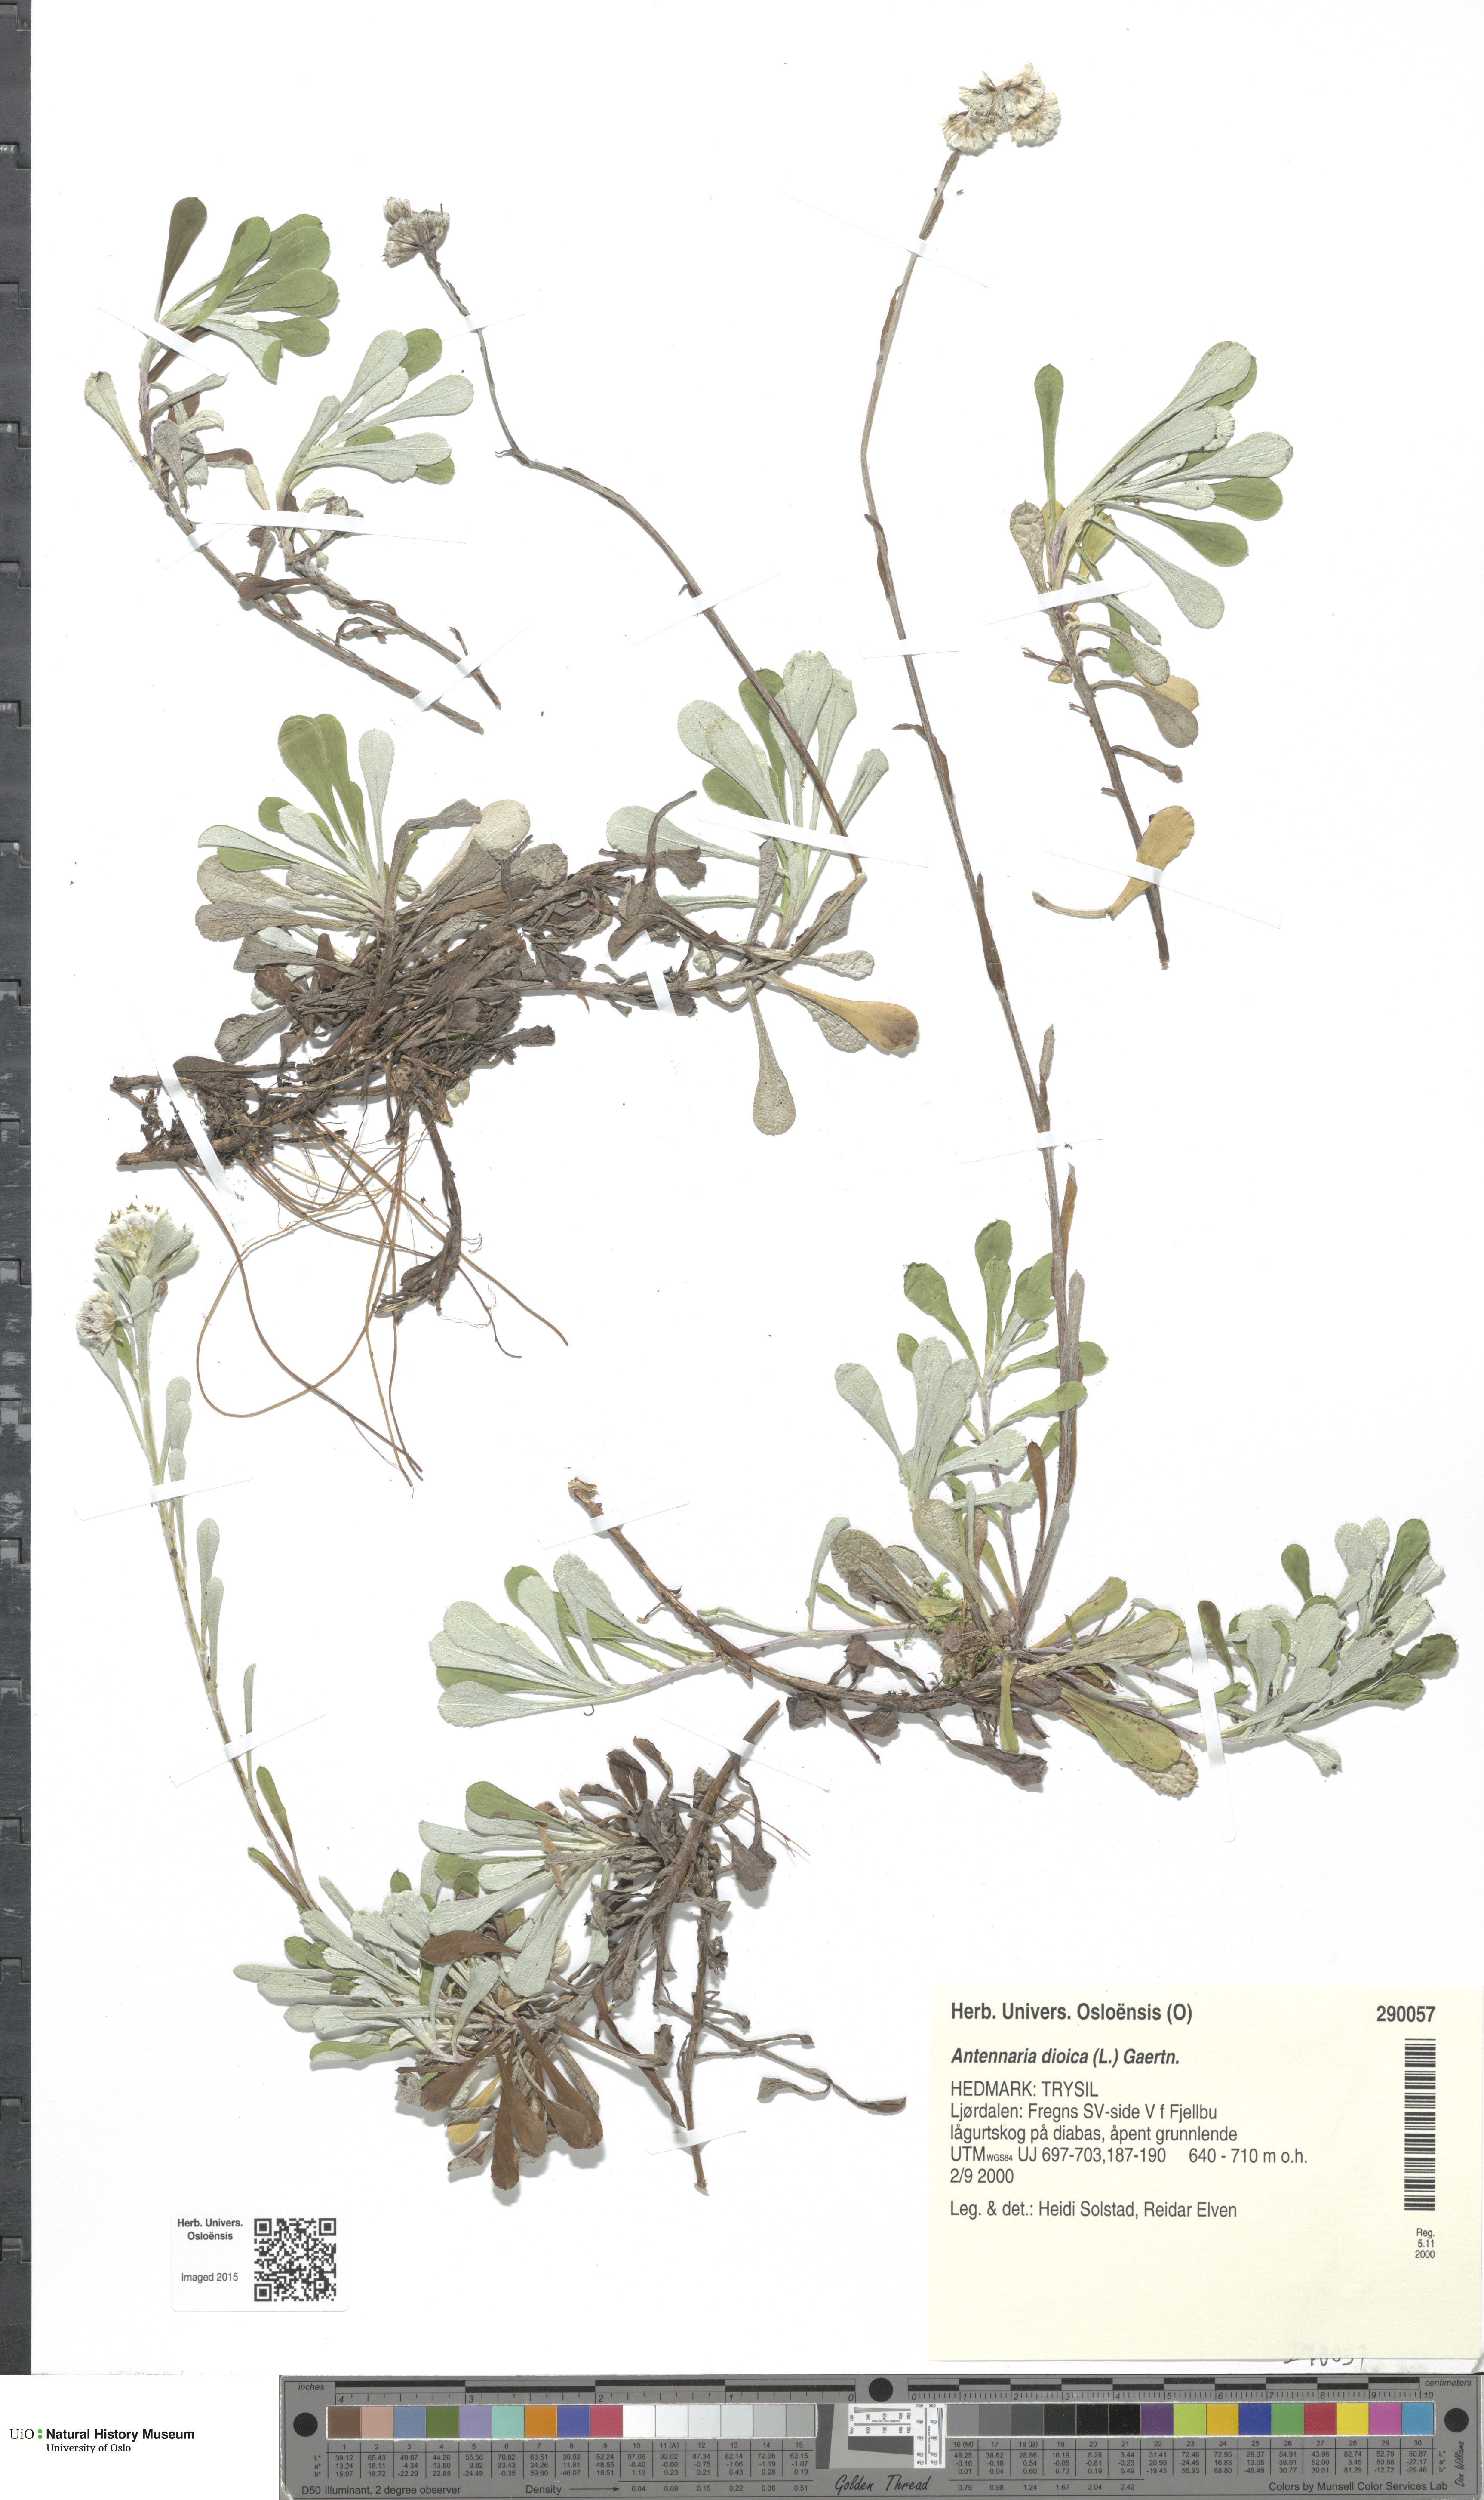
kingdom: Plantae
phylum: Tracheophyta
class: Magnoliopsida
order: Asterales
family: Asteraceae
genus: Antennaria
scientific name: Antennaria dioica
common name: Mountain everlasting
